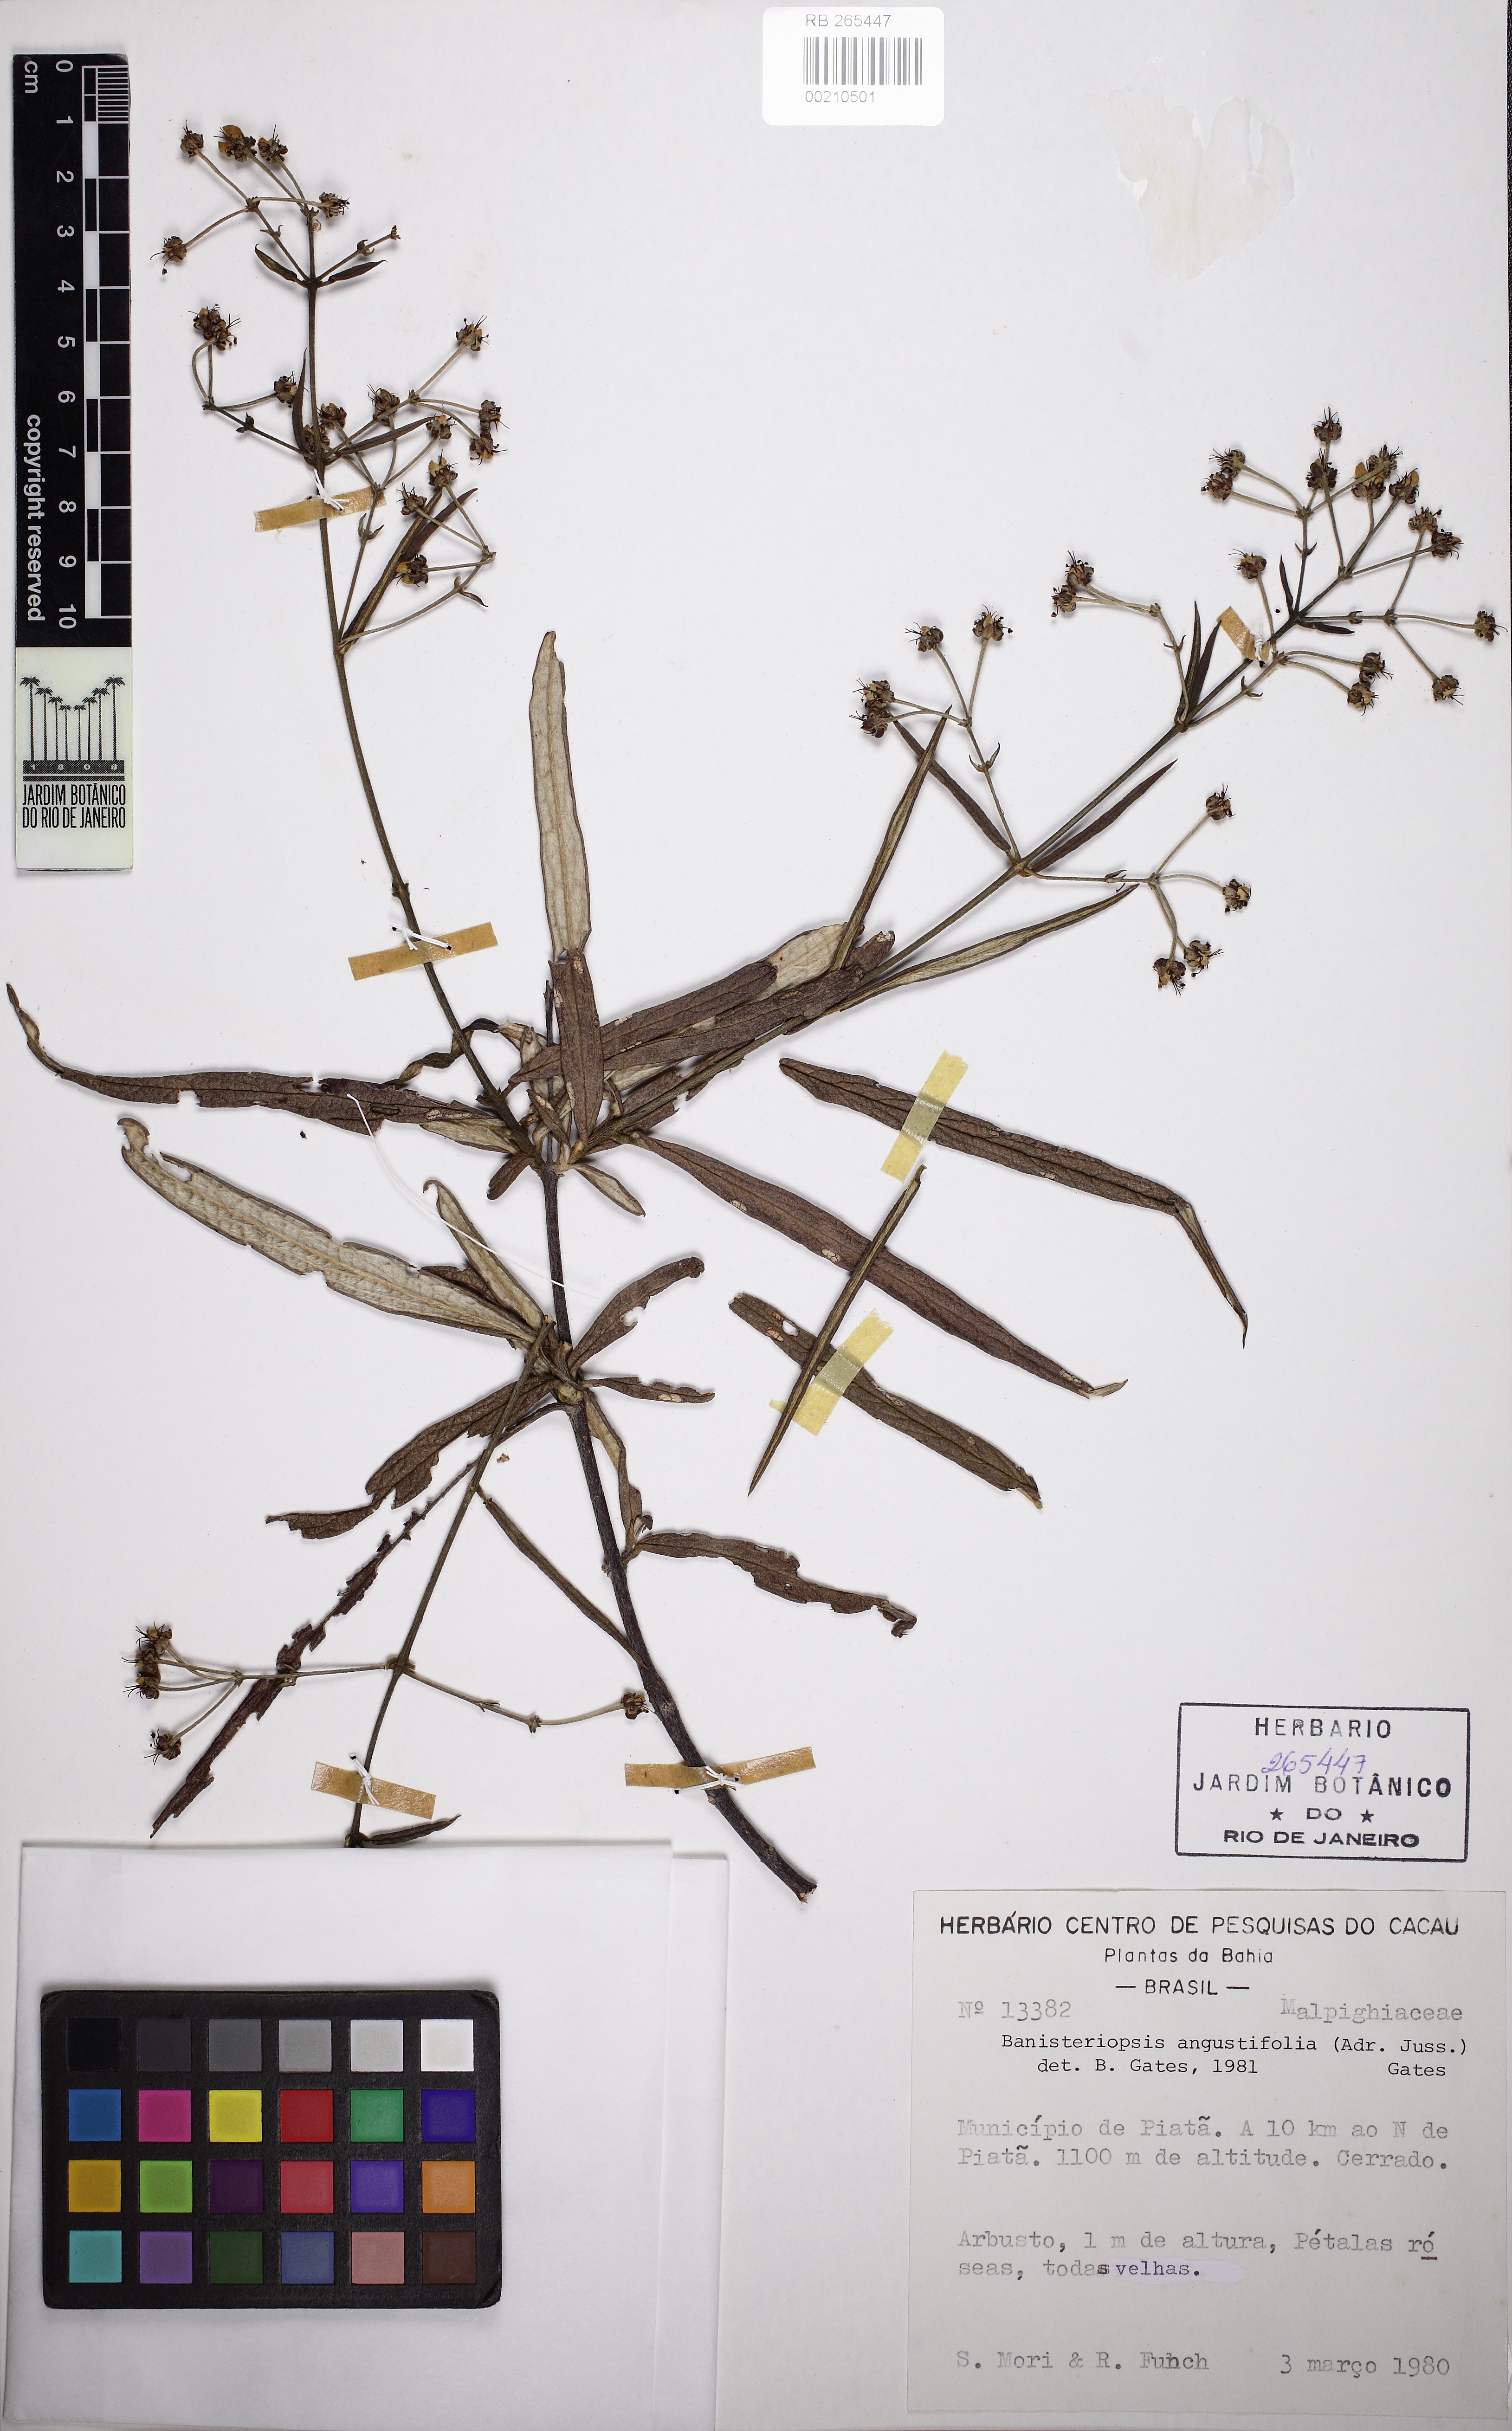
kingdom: Plantae
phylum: Tracheophyta
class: Magnoliopsida
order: Malpighiales
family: Malpighiaceae
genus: Banisteriopsis
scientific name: Banisteriopsis angustifolia
